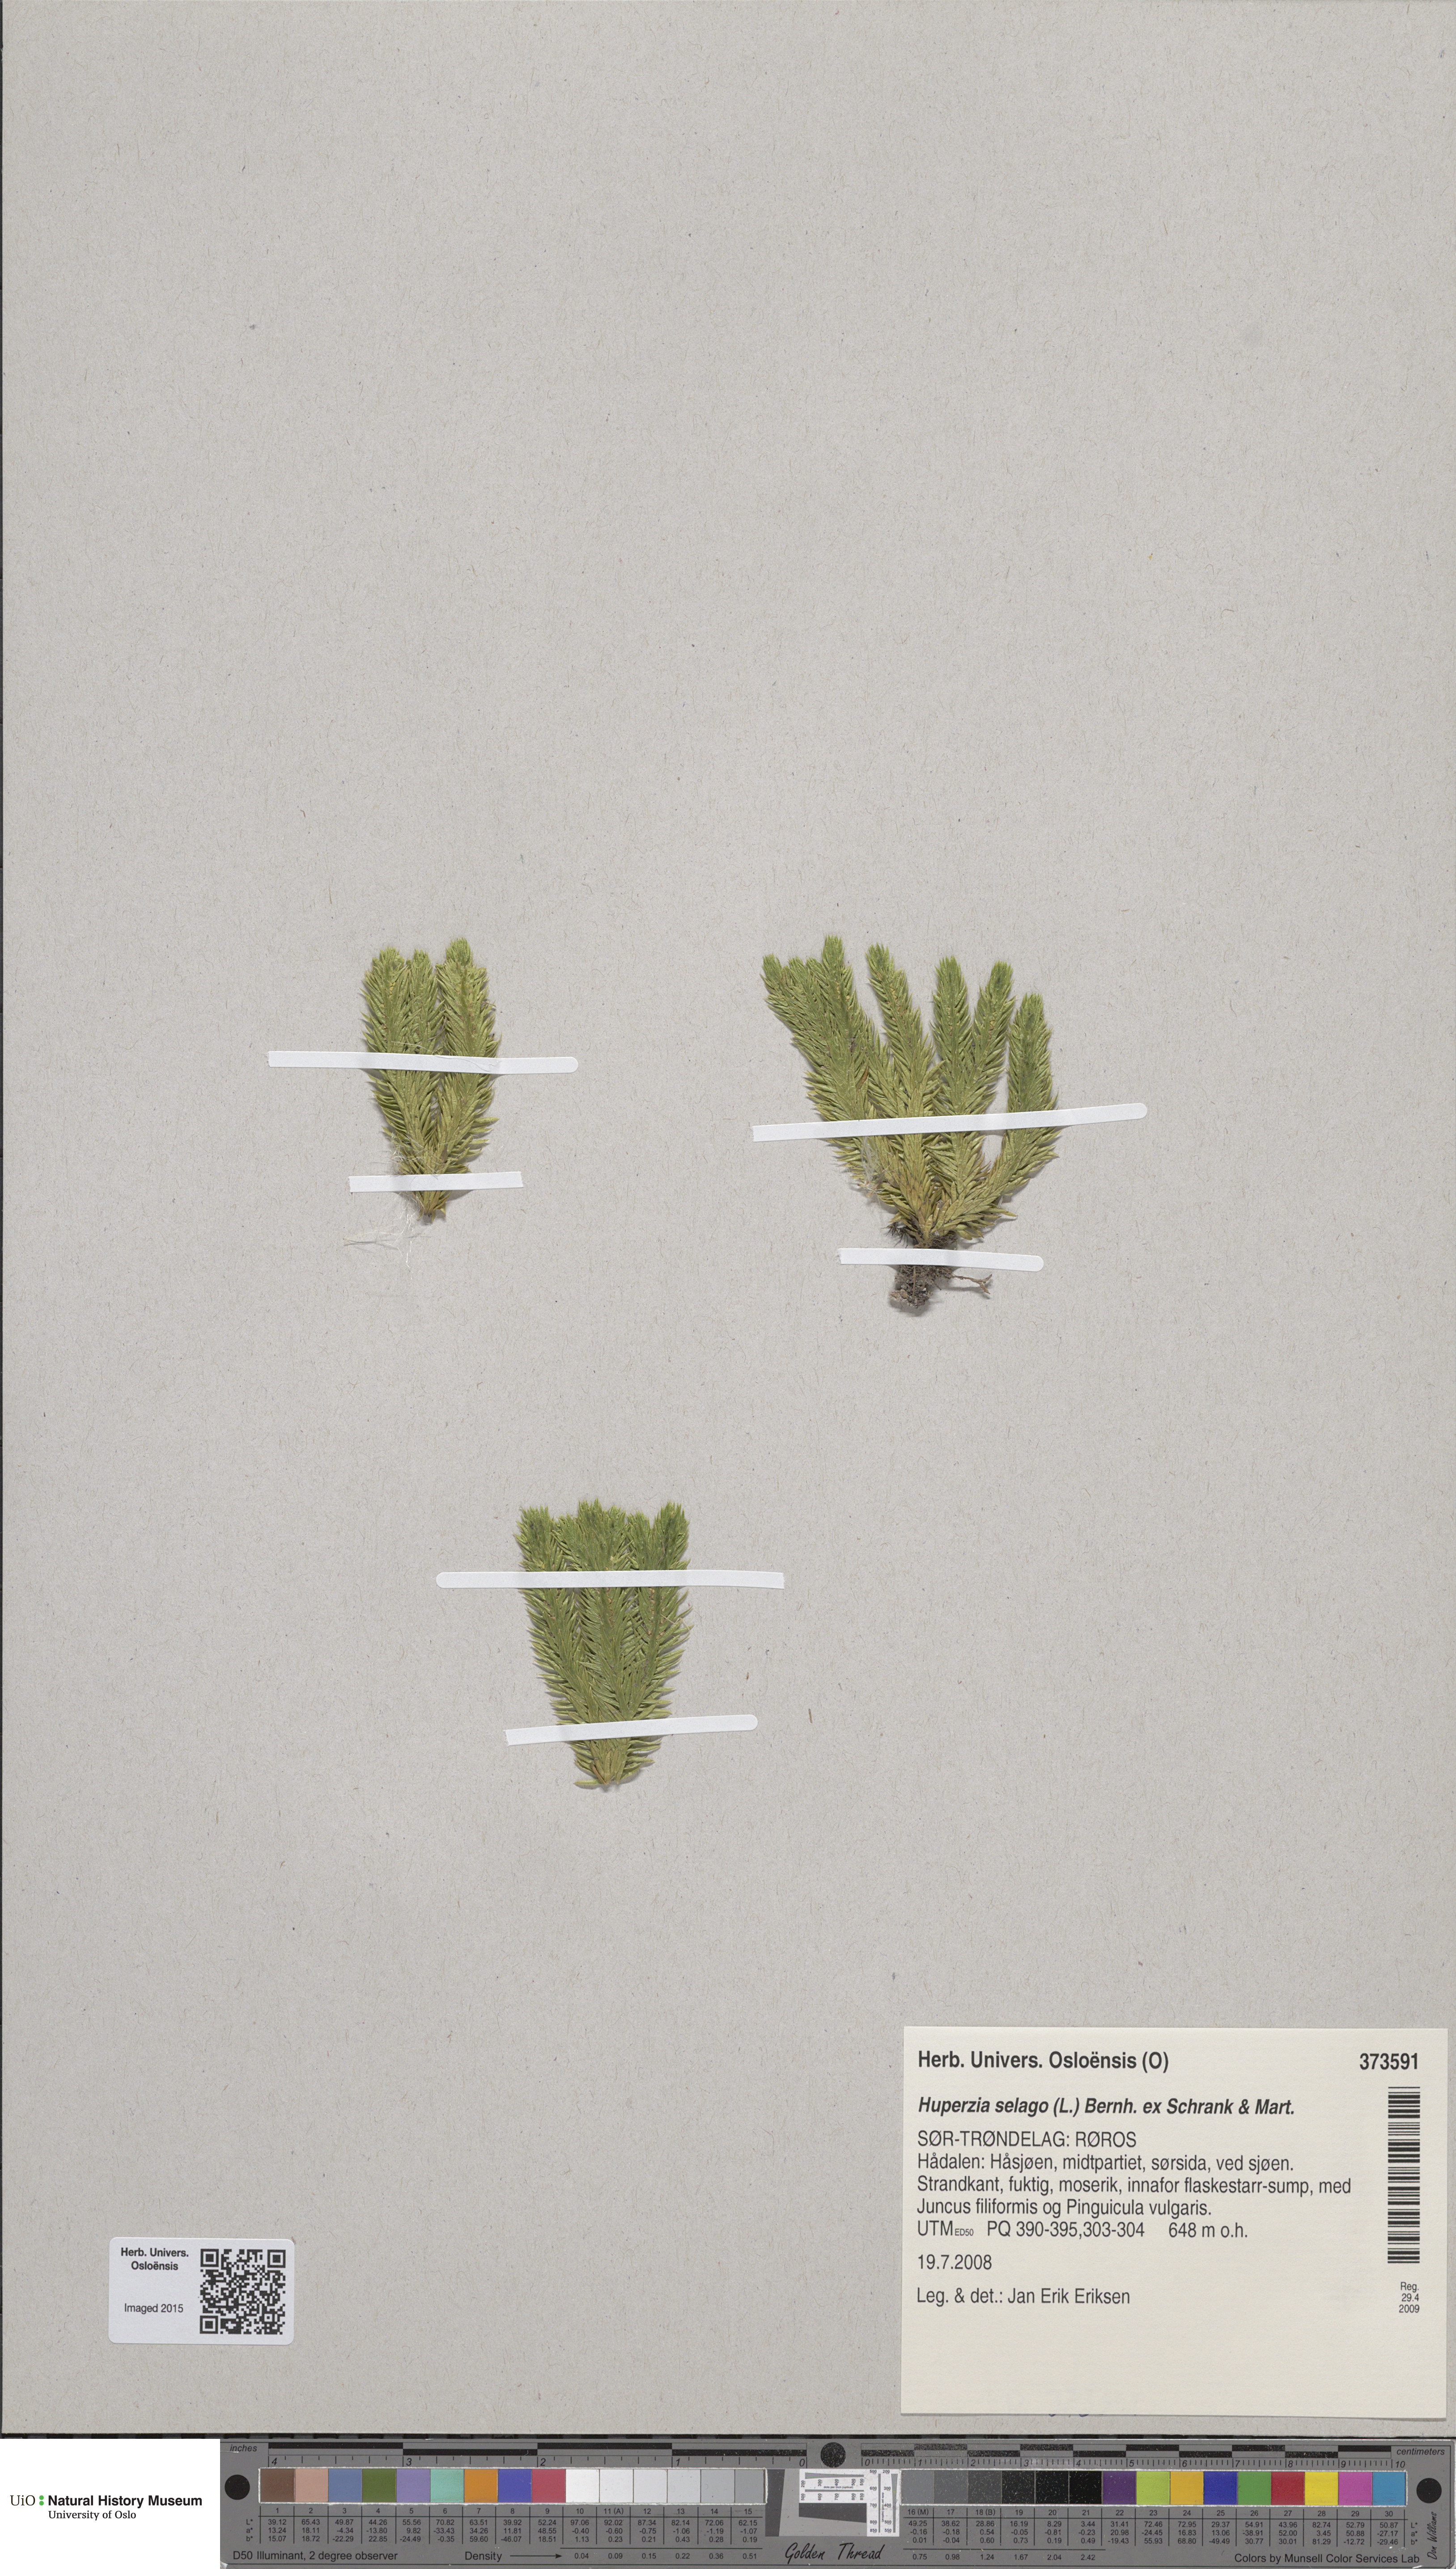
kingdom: Plantae
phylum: Tracheophyta
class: Lycopodiopsida
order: Lycopodiales
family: Lycopodiaceae
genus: Huperzia
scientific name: Huperzia selago
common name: Northern firmoss
